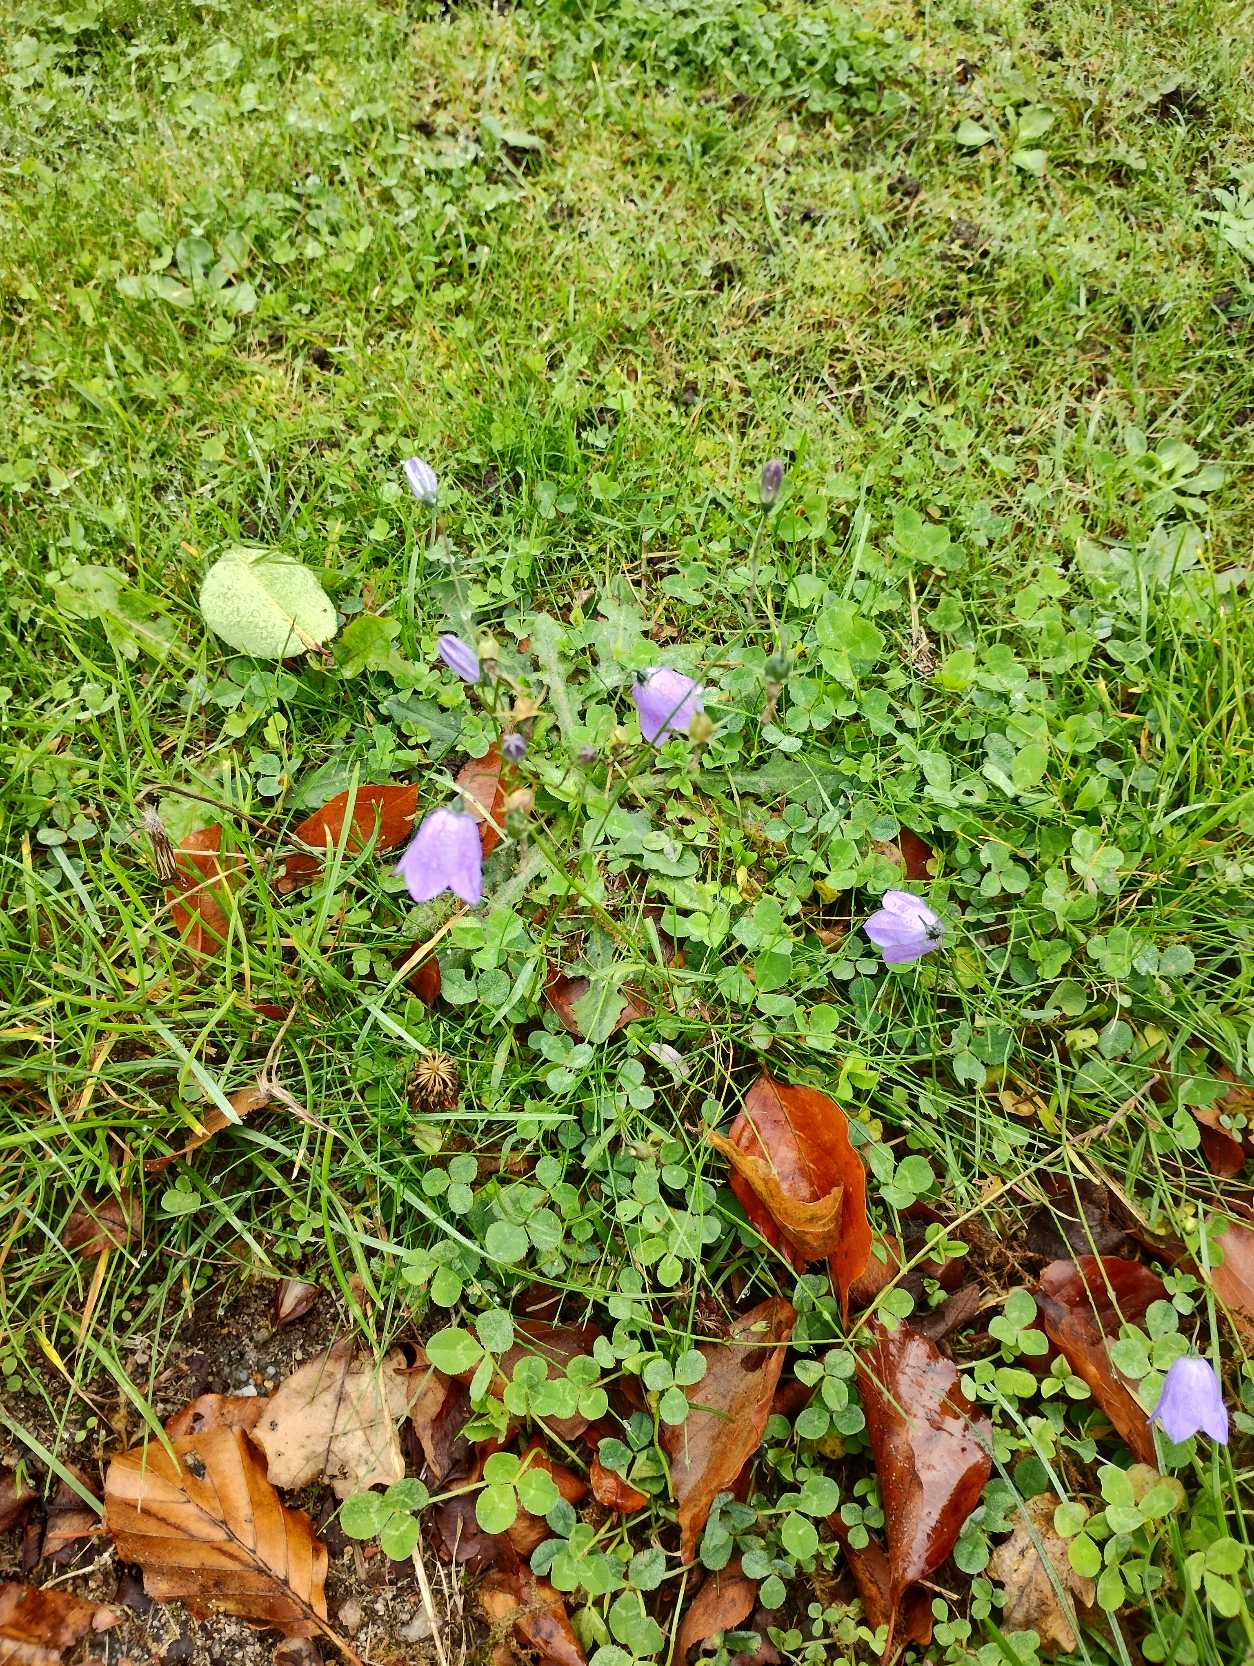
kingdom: Plantae
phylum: Tracheophyta
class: Magnoliopsida
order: Asterales
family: Campanulaceae
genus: Campanula
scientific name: Campanula rotundifolia
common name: Liden klokke
